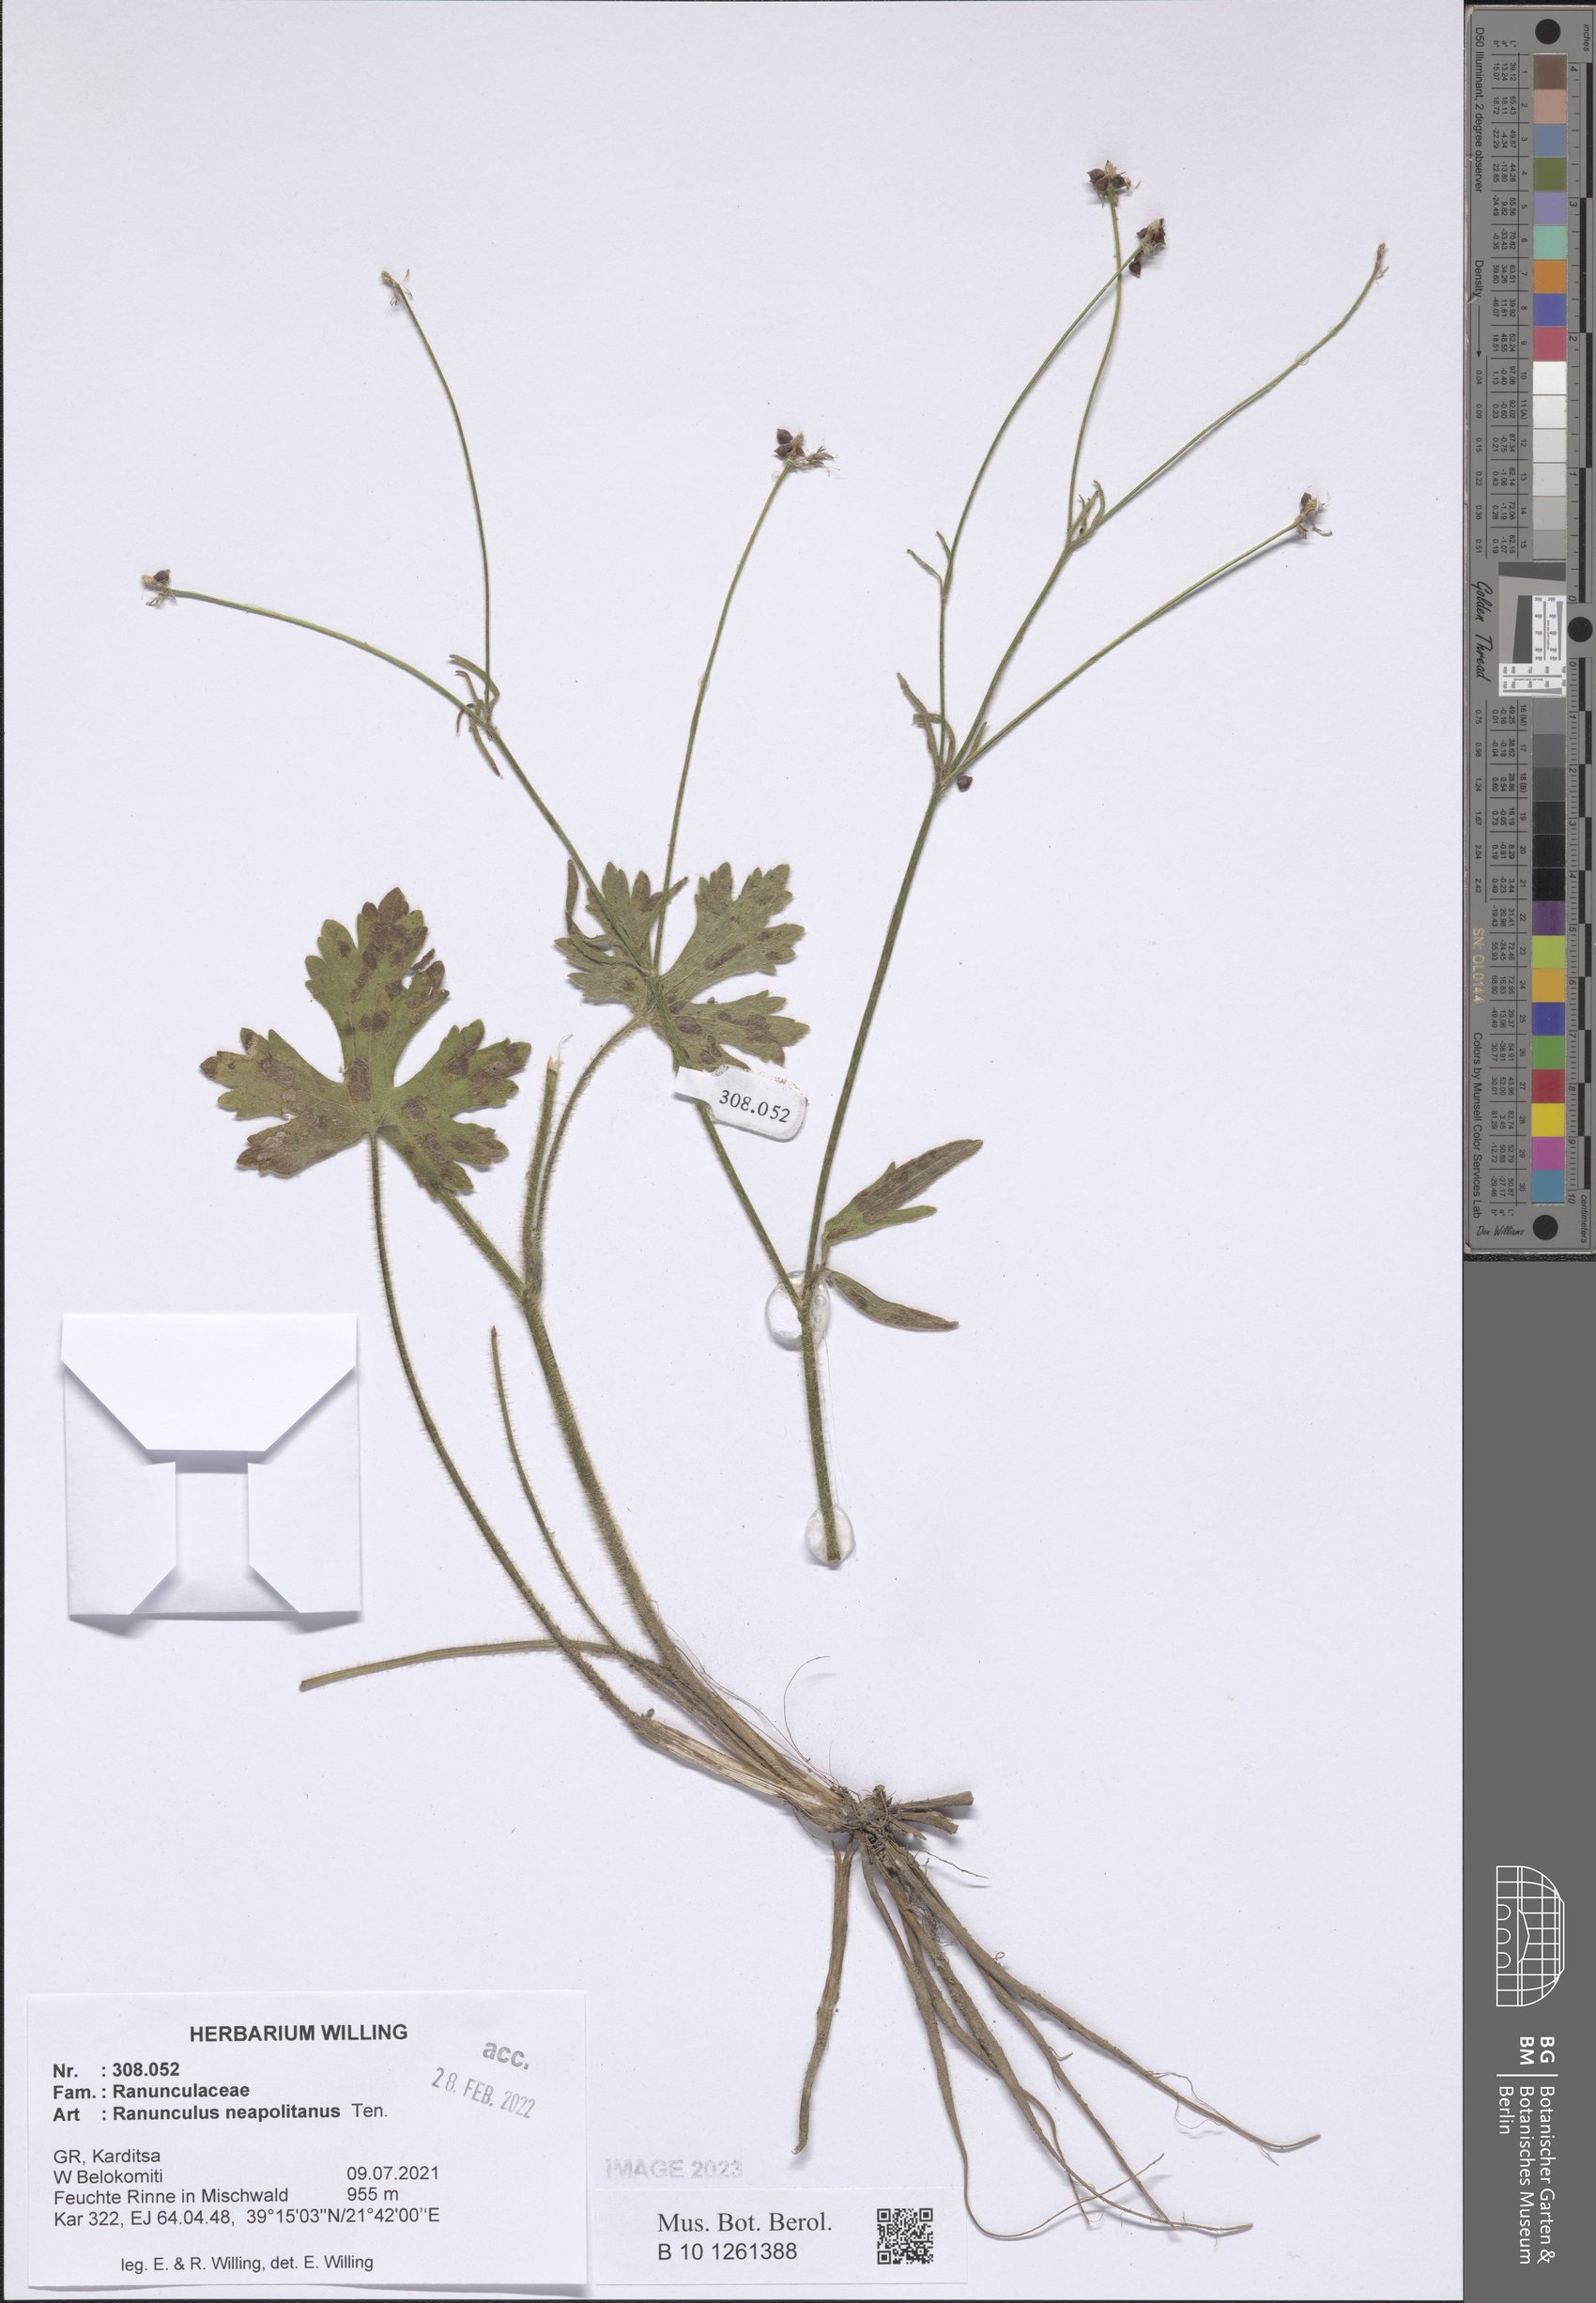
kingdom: Plantae
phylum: Tracheophyta
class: Magnoliopsida
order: Ranunculales
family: Ranunculaceae
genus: Ranunculus
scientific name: Ranunculus neapolitanus
